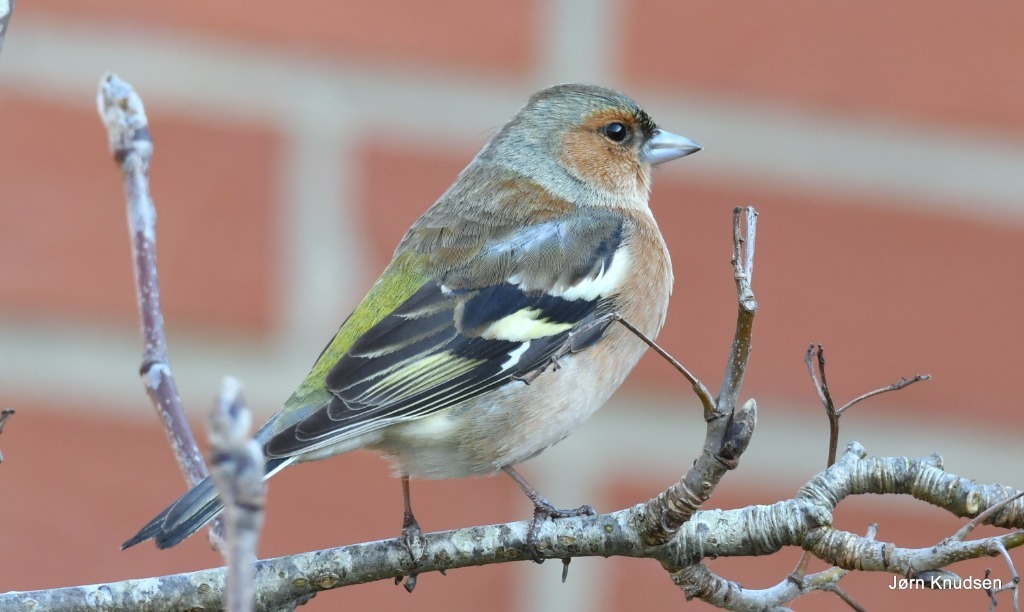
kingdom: Animalia
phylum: Chordata
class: Aves
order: Passeriformes
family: Fringillidae
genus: Fringilla
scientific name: Fringilla coelebs
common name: Bogfinke
